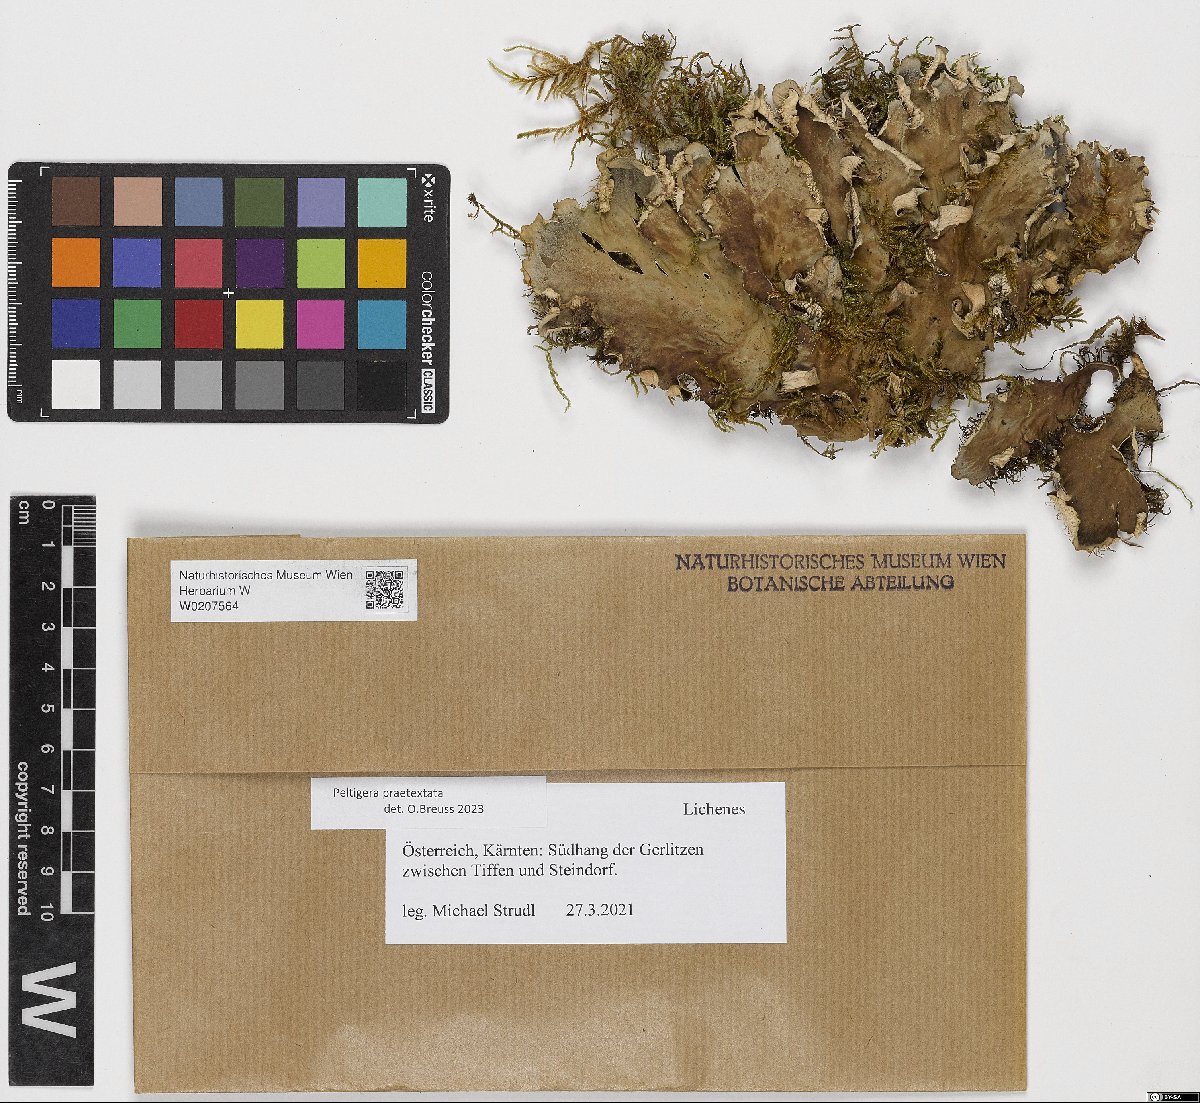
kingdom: Fungi
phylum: Ascomycota
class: Lecanoromycetes
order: Peltigerales
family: Peltigeraceae
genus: Peltigera
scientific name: Peltigera praetextata
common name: Scaly dog-lichen
